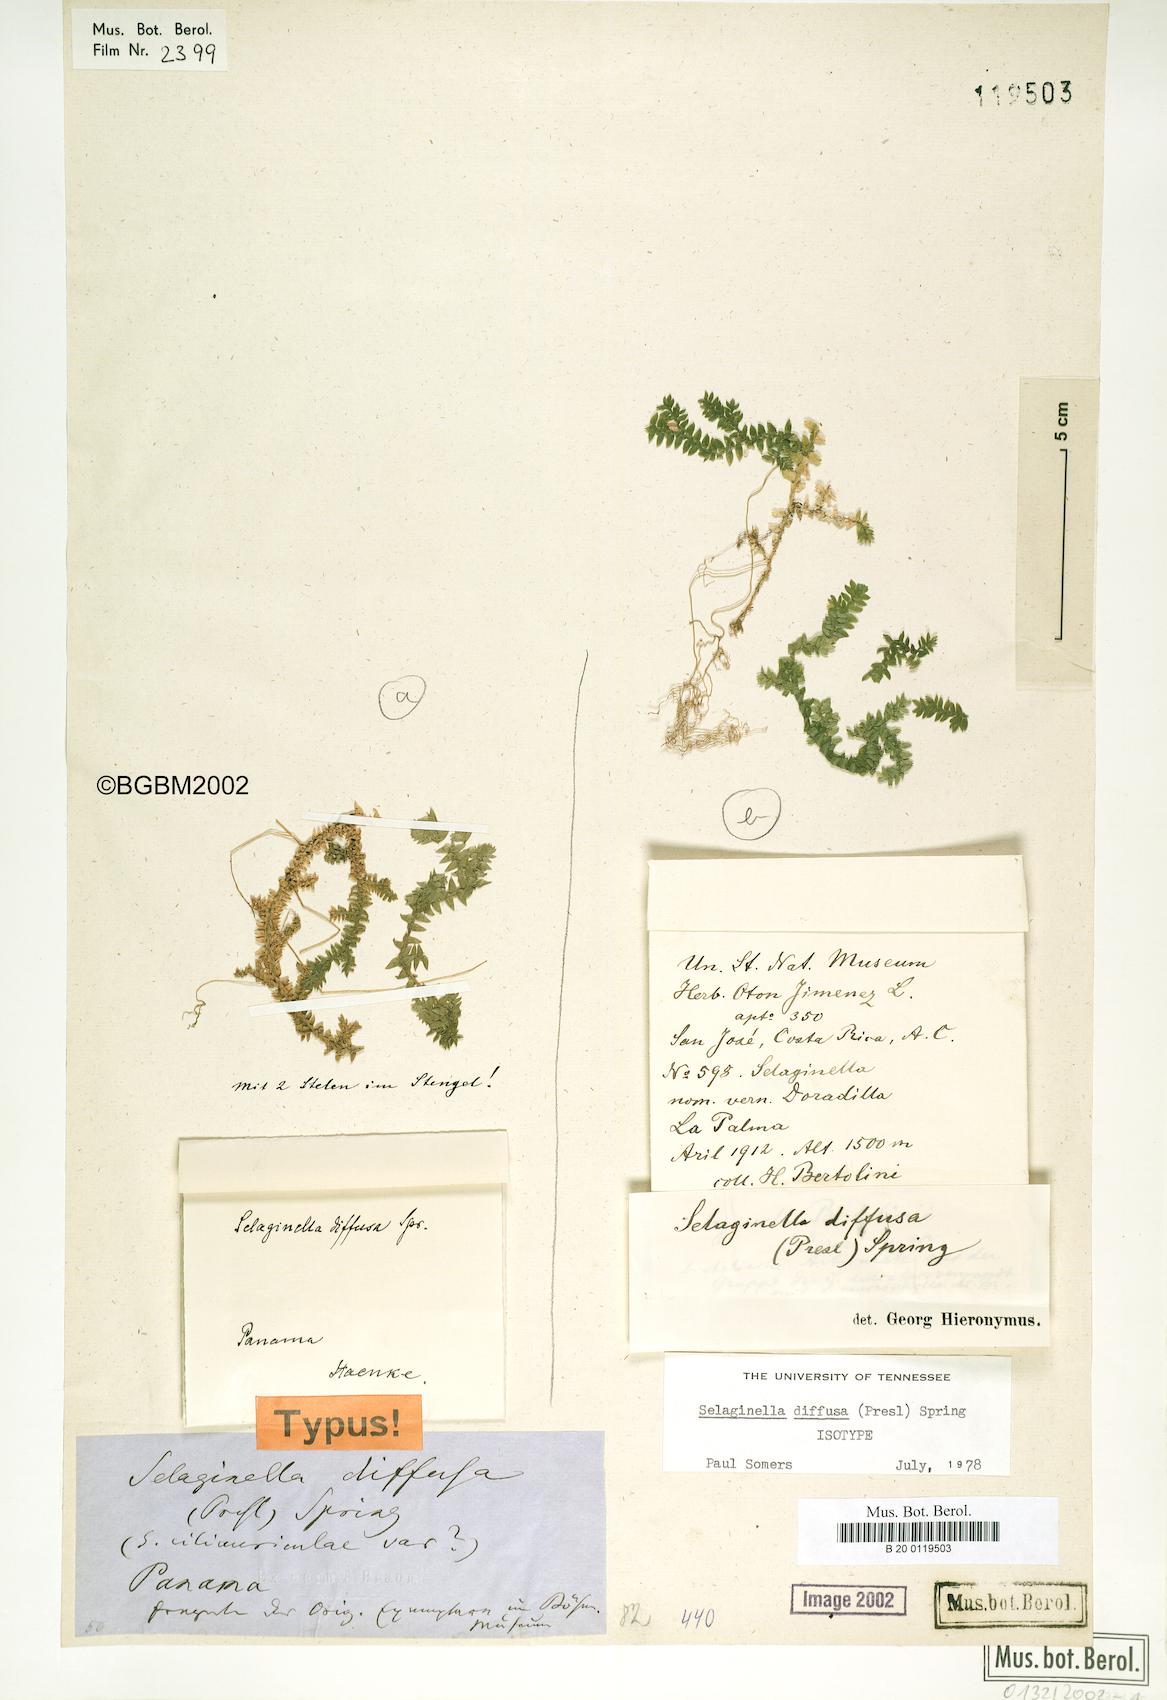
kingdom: Plantae
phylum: Tracheophyta
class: Lycopodiopsida
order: Selaginellales
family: Selaginellaceae
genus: Selaginella
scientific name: Selaginella diffusa
